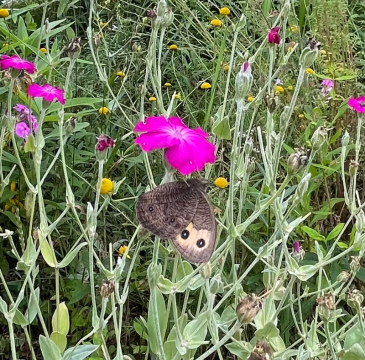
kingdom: Animalia
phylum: Arthropoda
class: Insecta
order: Lepidoptera
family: Nymphalidae
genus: Cercyonis
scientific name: Cercyonis pegala
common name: Common Wood-Nymph
